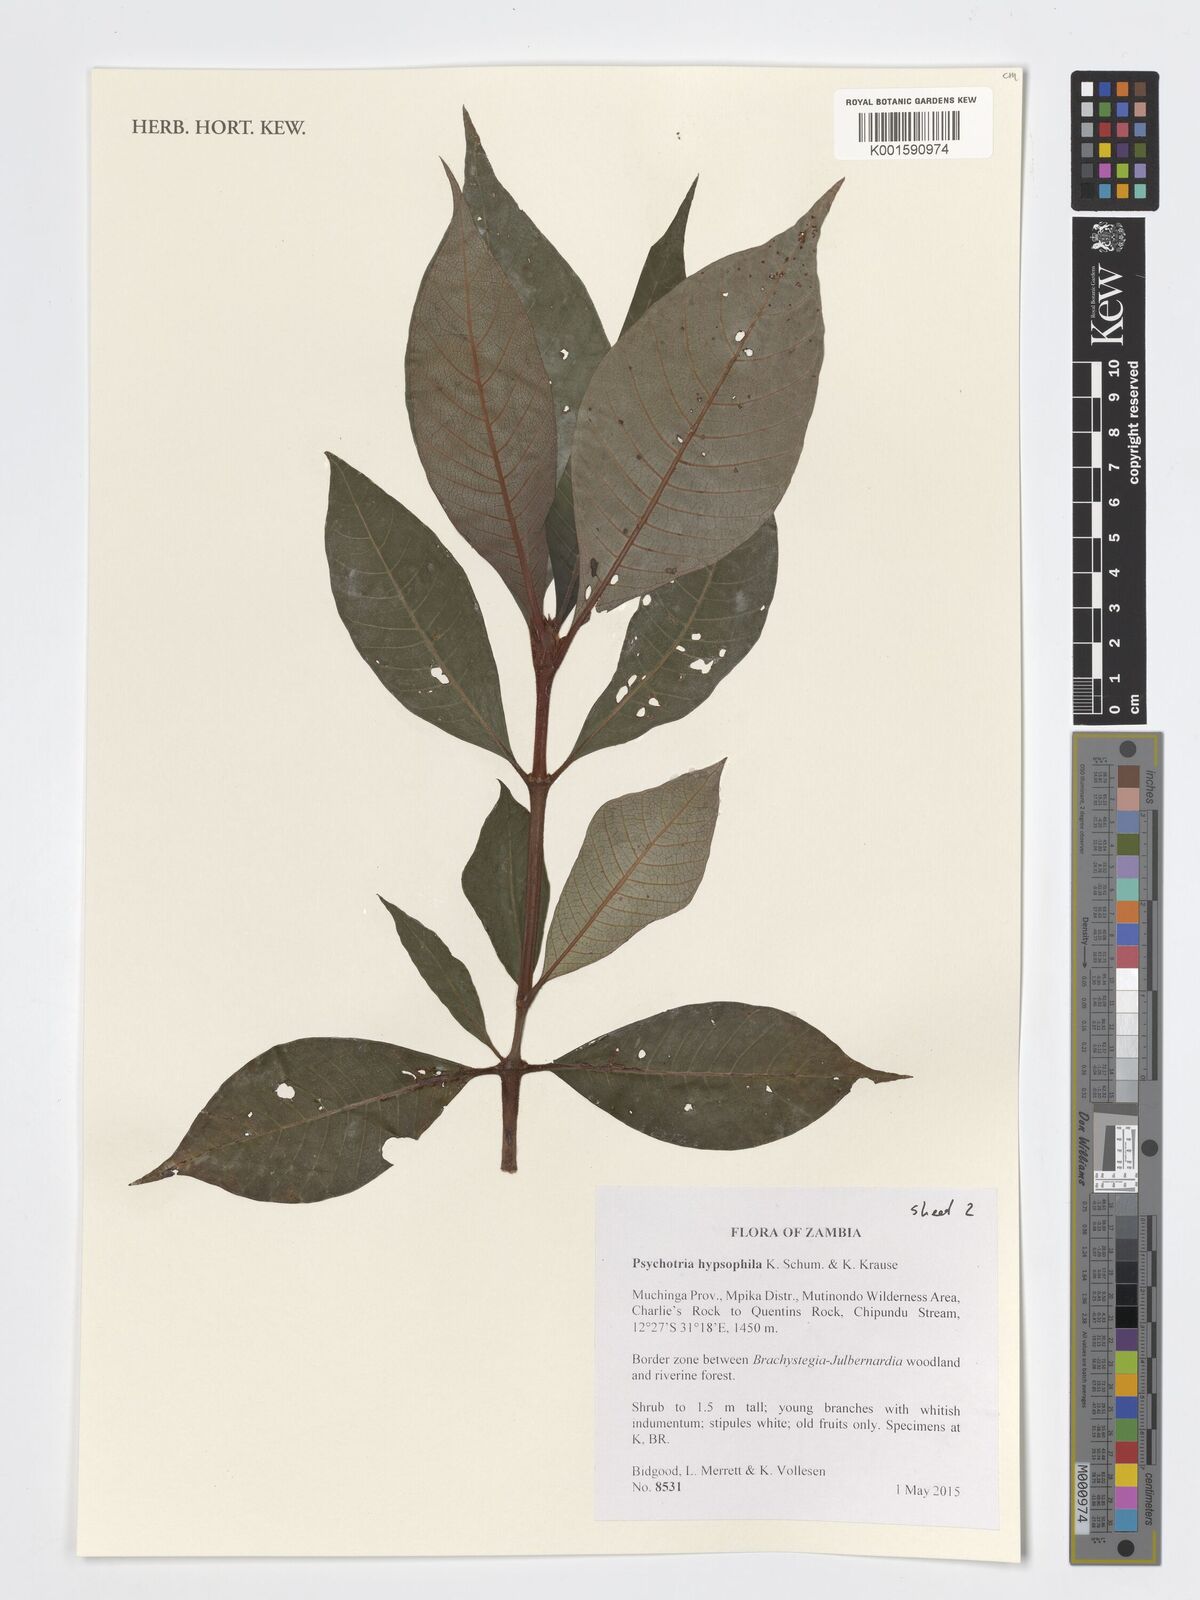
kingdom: Plantae
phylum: Tracheophyta
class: Magnoliopsida
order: Gentianales
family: Rubiaceae
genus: Psychotria
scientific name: Psychotria peduncularis
